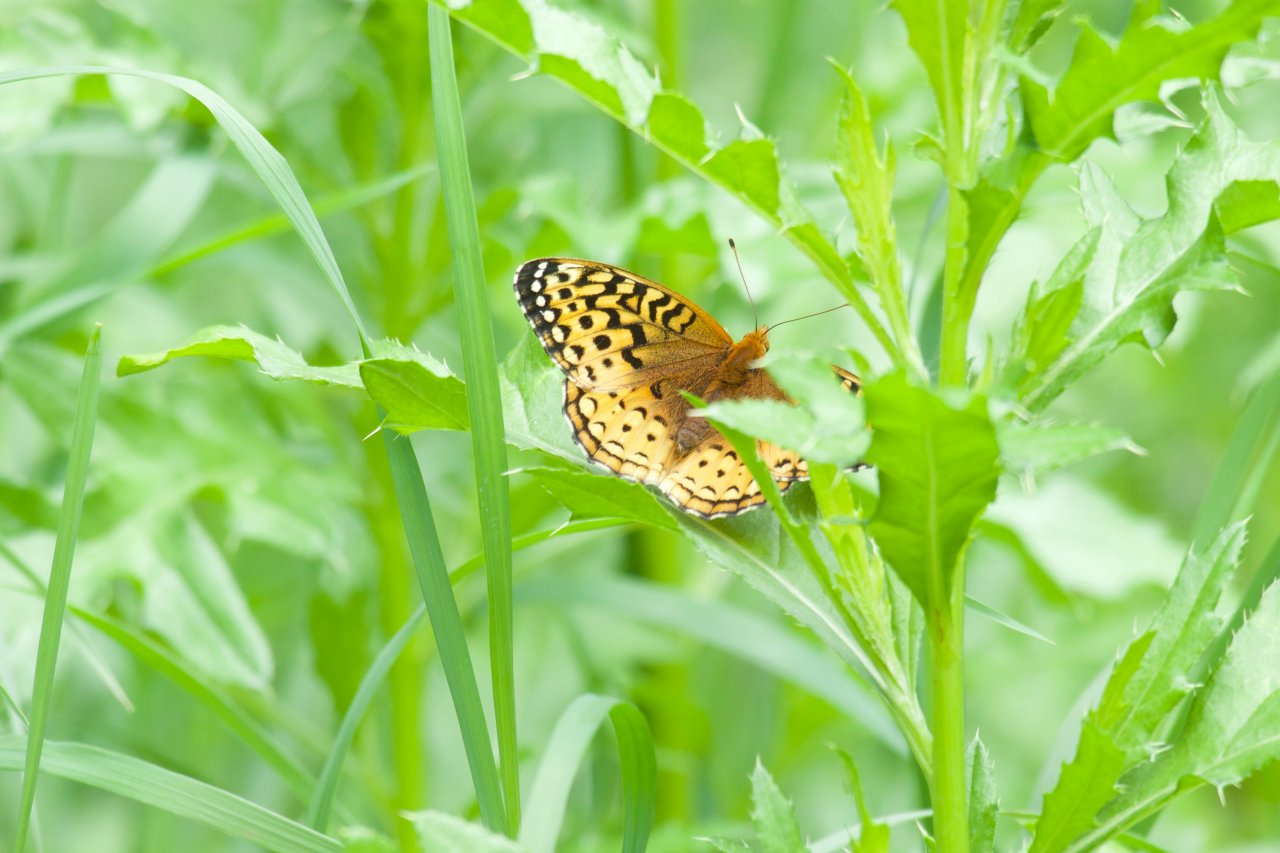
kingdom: Animalia
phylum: Arthropoda
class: Insecta
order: Lepidoptera
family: Nymphalidae
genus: Speyeria
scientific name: Speyeria cybele
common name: Great Spangled Fritillary
